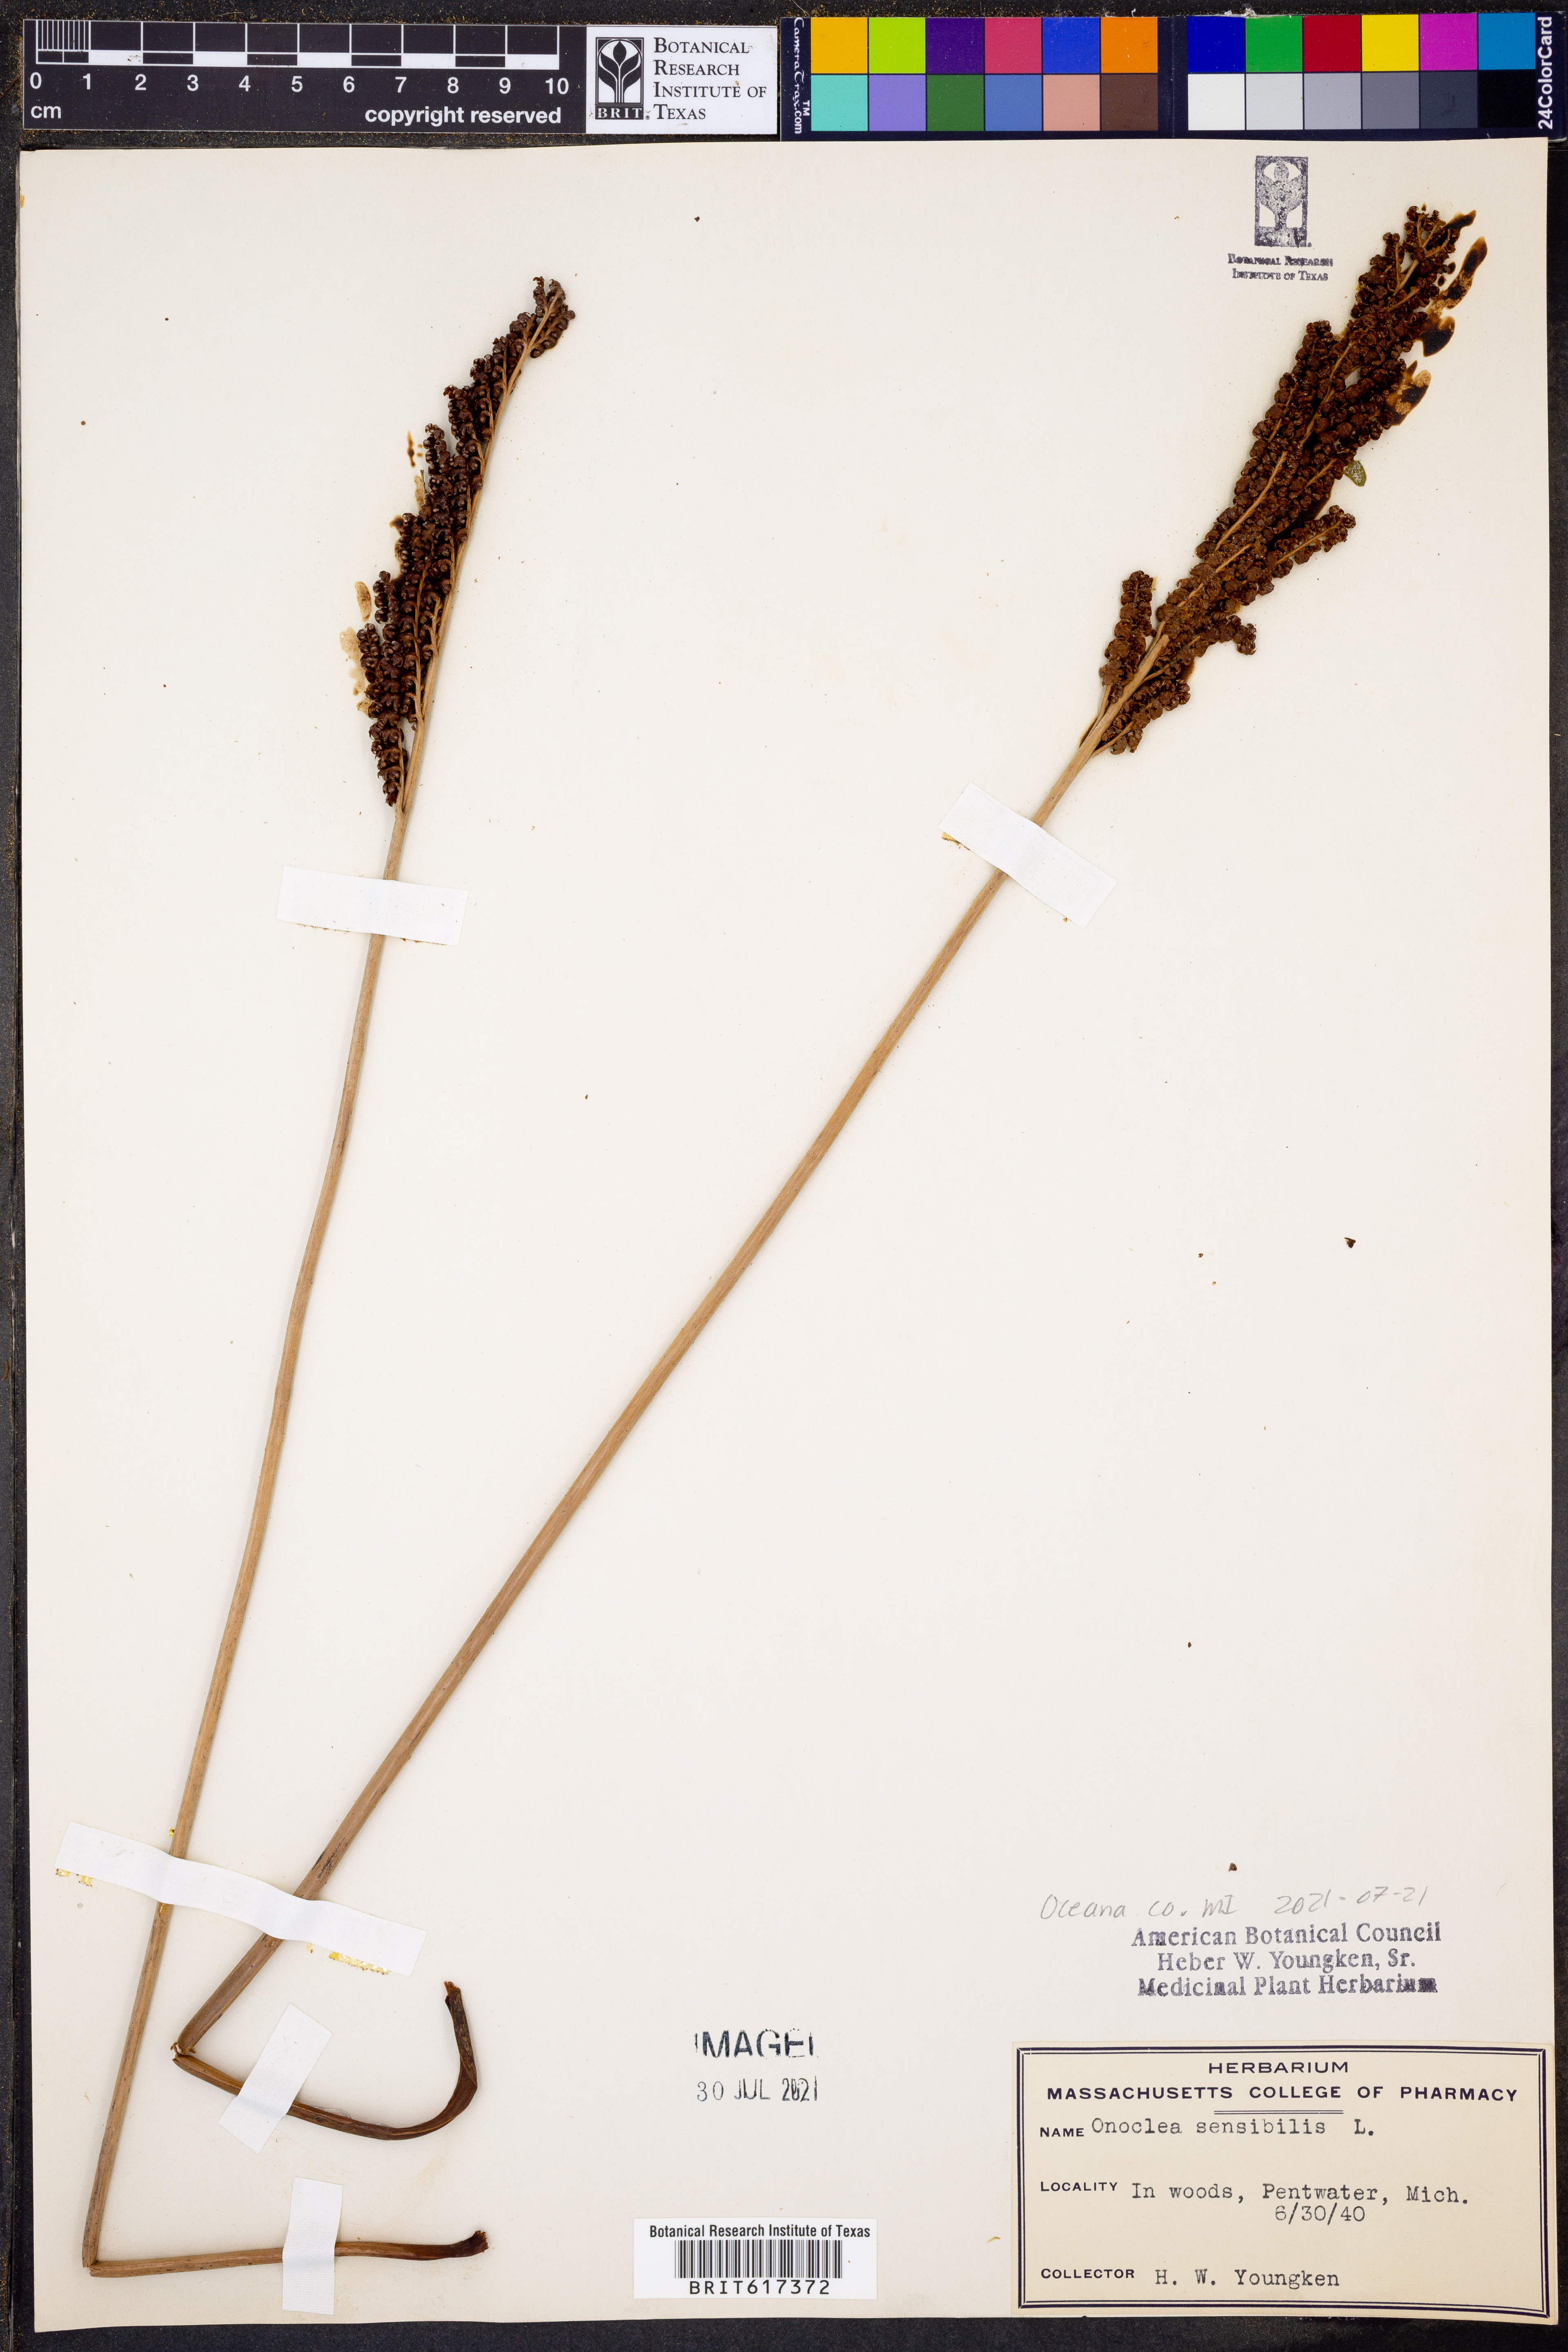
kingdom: Plantae
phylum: Tracheophyta
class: Polypodiopsida
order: Polypodiales
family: Onocleaceae
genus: Onoclea
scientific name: Onoclea sensibilis
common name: Sensitive fern
